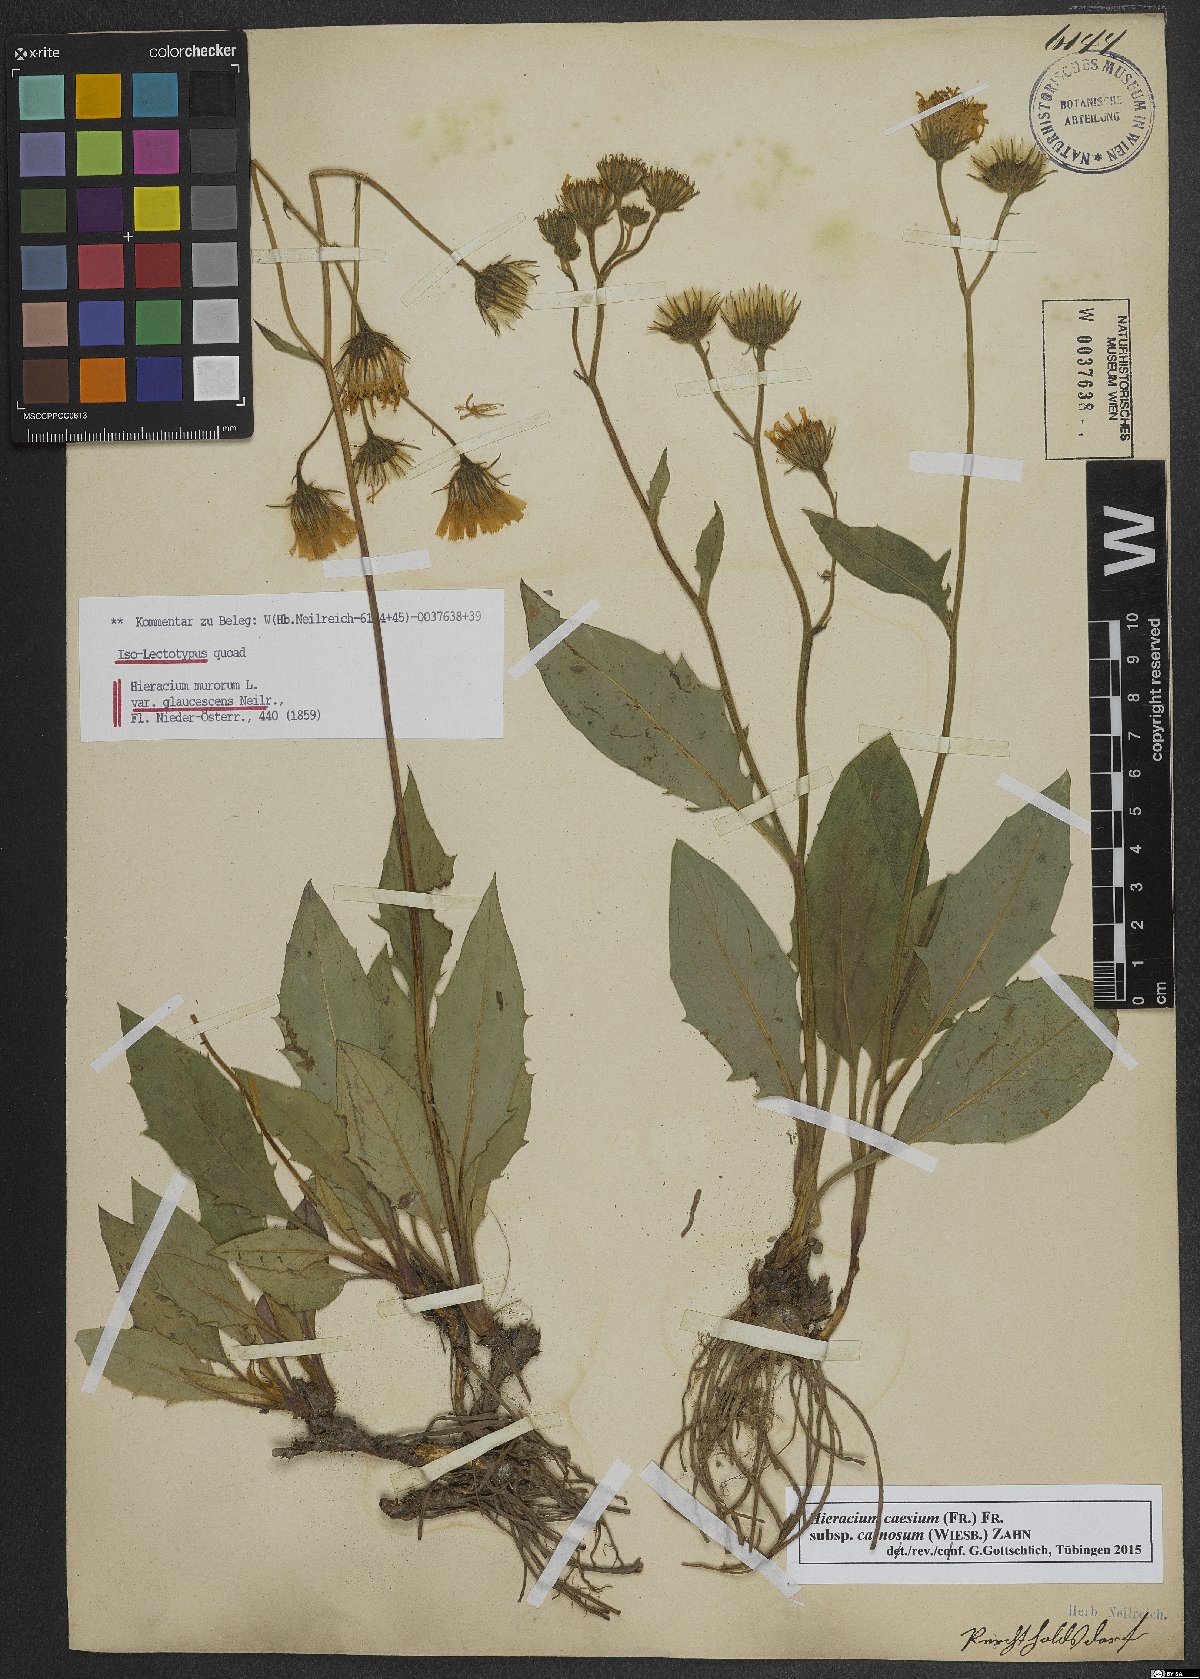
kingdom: Plantae
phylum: Tracheophyta
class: Magnoliopsida
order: Asterales
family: Asteraceae
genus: Hieracium
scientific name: Hieracium caesium
